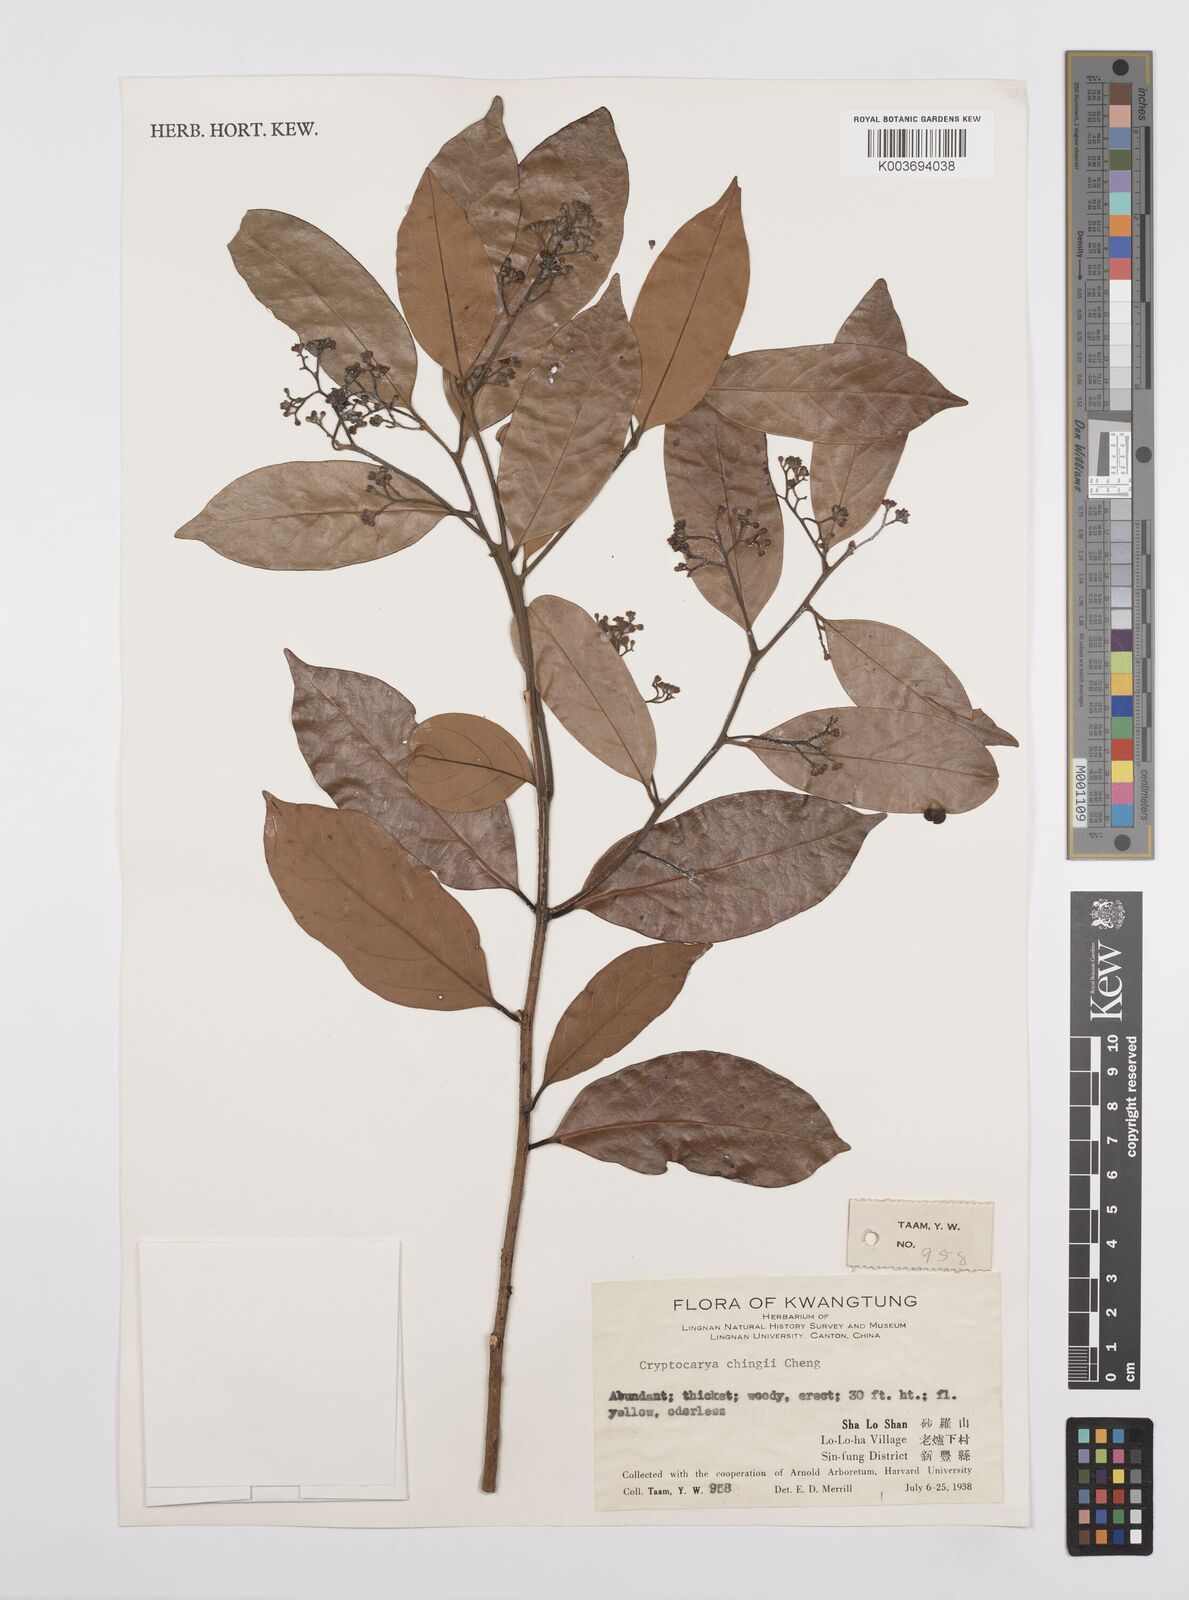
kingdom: Plantae
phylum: Tracheophyta
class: Magnoliopsida
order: Laurales
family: Lauraceae
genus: Cryptocarya
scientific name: Cryptocarya chingii
